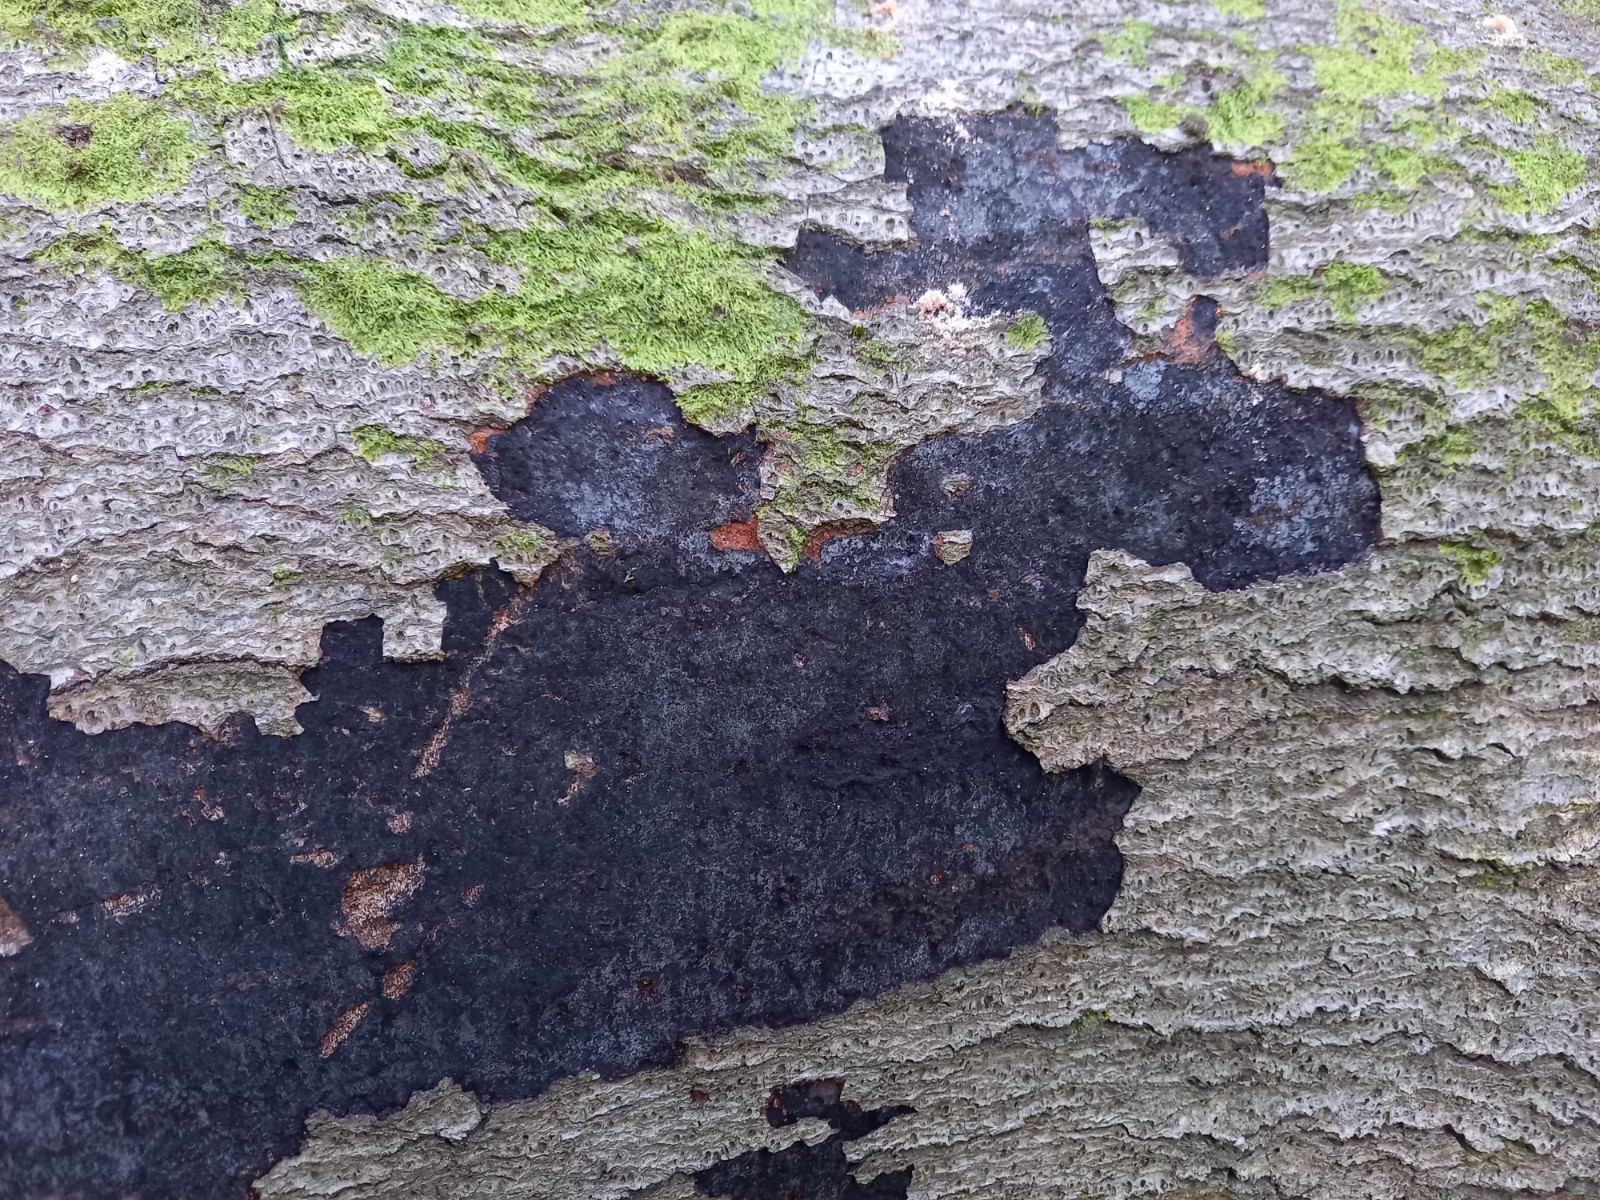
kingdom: Fungi
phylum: Ascomycota
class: Sordariomycetes
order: Xylariales
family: Diatrypaceae
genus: Eutypa
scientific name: Eutypa spinosa
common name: grov kulskorpe
